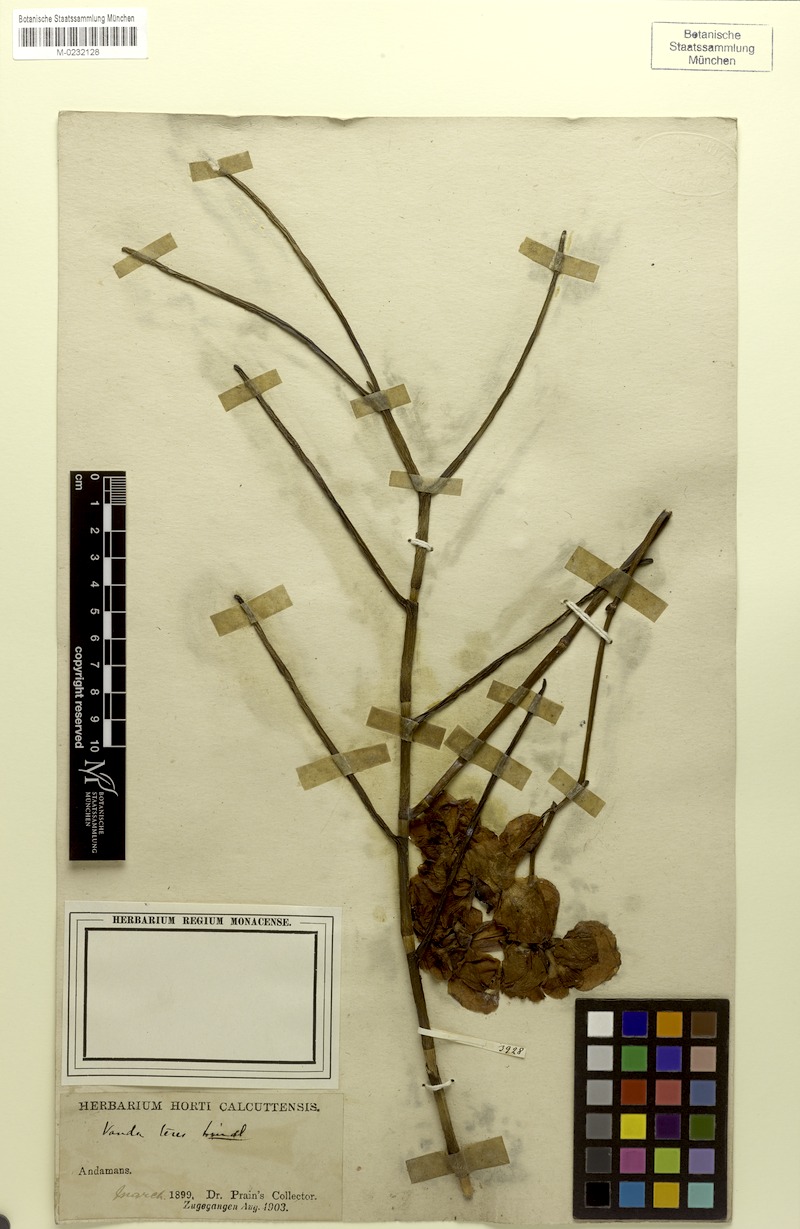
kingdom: Plantae
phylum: Tracheophyta
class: Liliopsida
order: Asparagales
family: Orchidaceae
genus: Papilionanthe
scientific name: Papilionanthe teres
